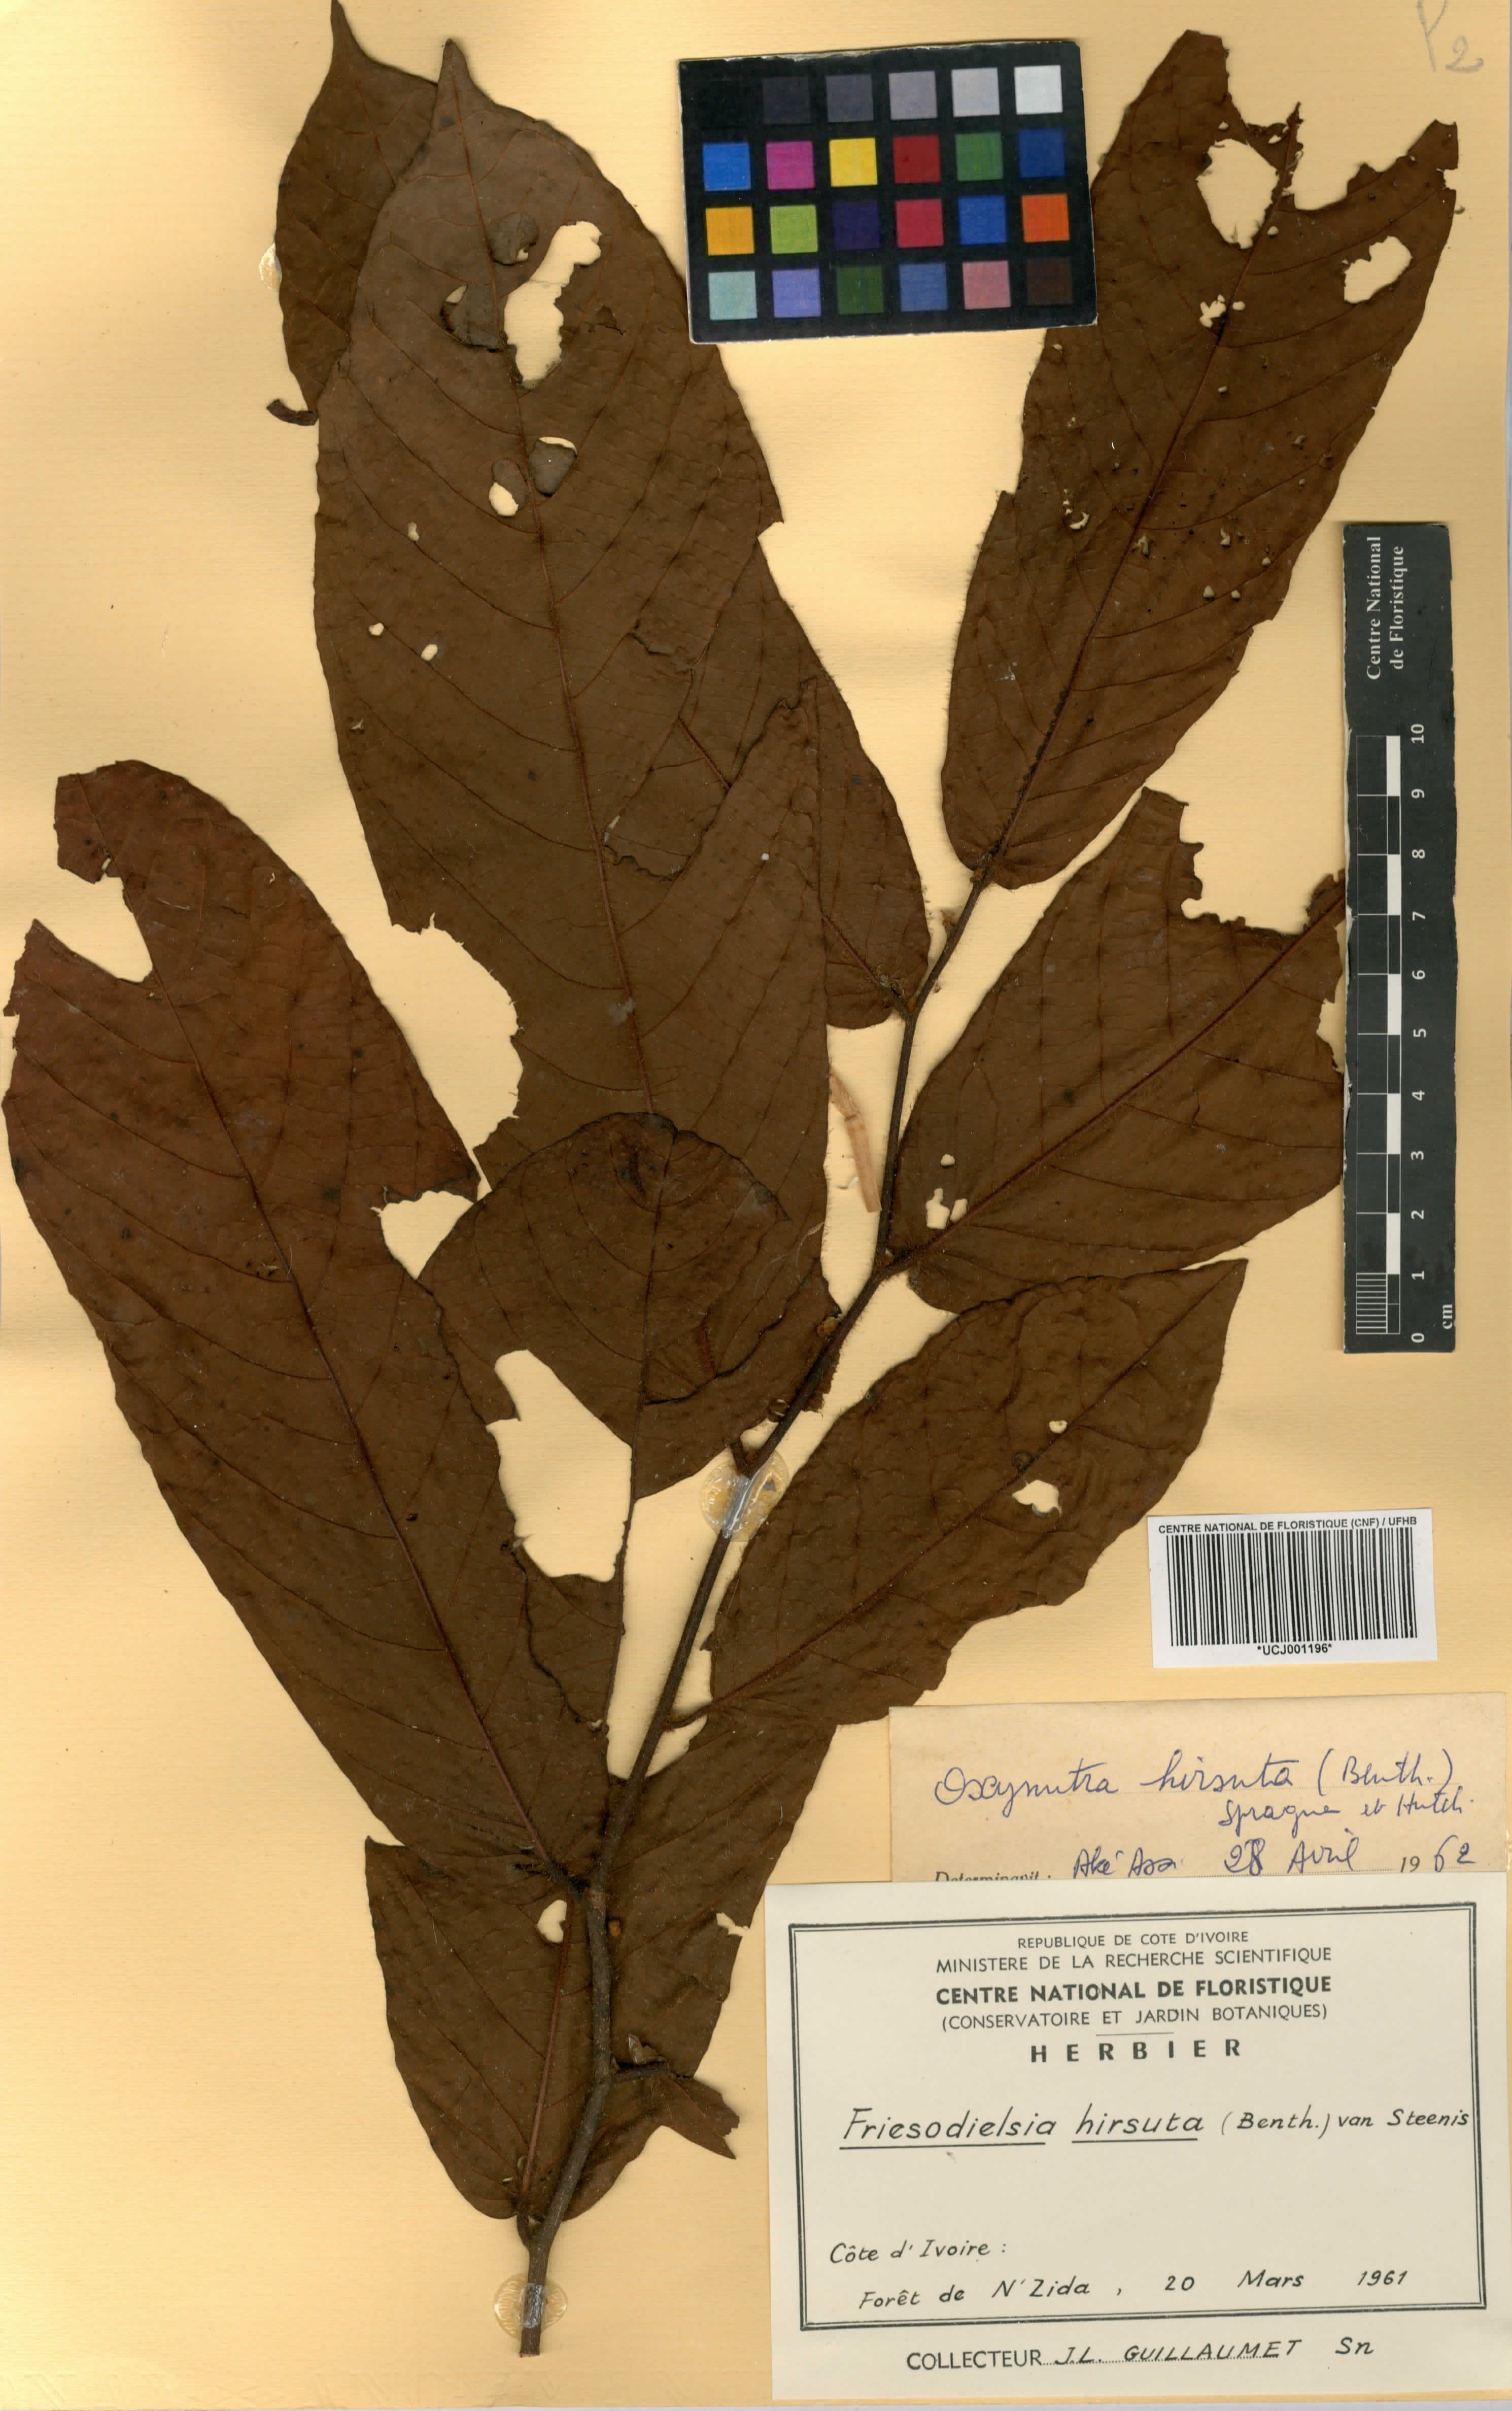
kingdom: Plantae
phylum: Tracheophyta
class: Magnoliopsida
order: Magnoliales
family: Annonaceae
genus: Friesodielsia
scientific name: Friesodielsia hirsuta
